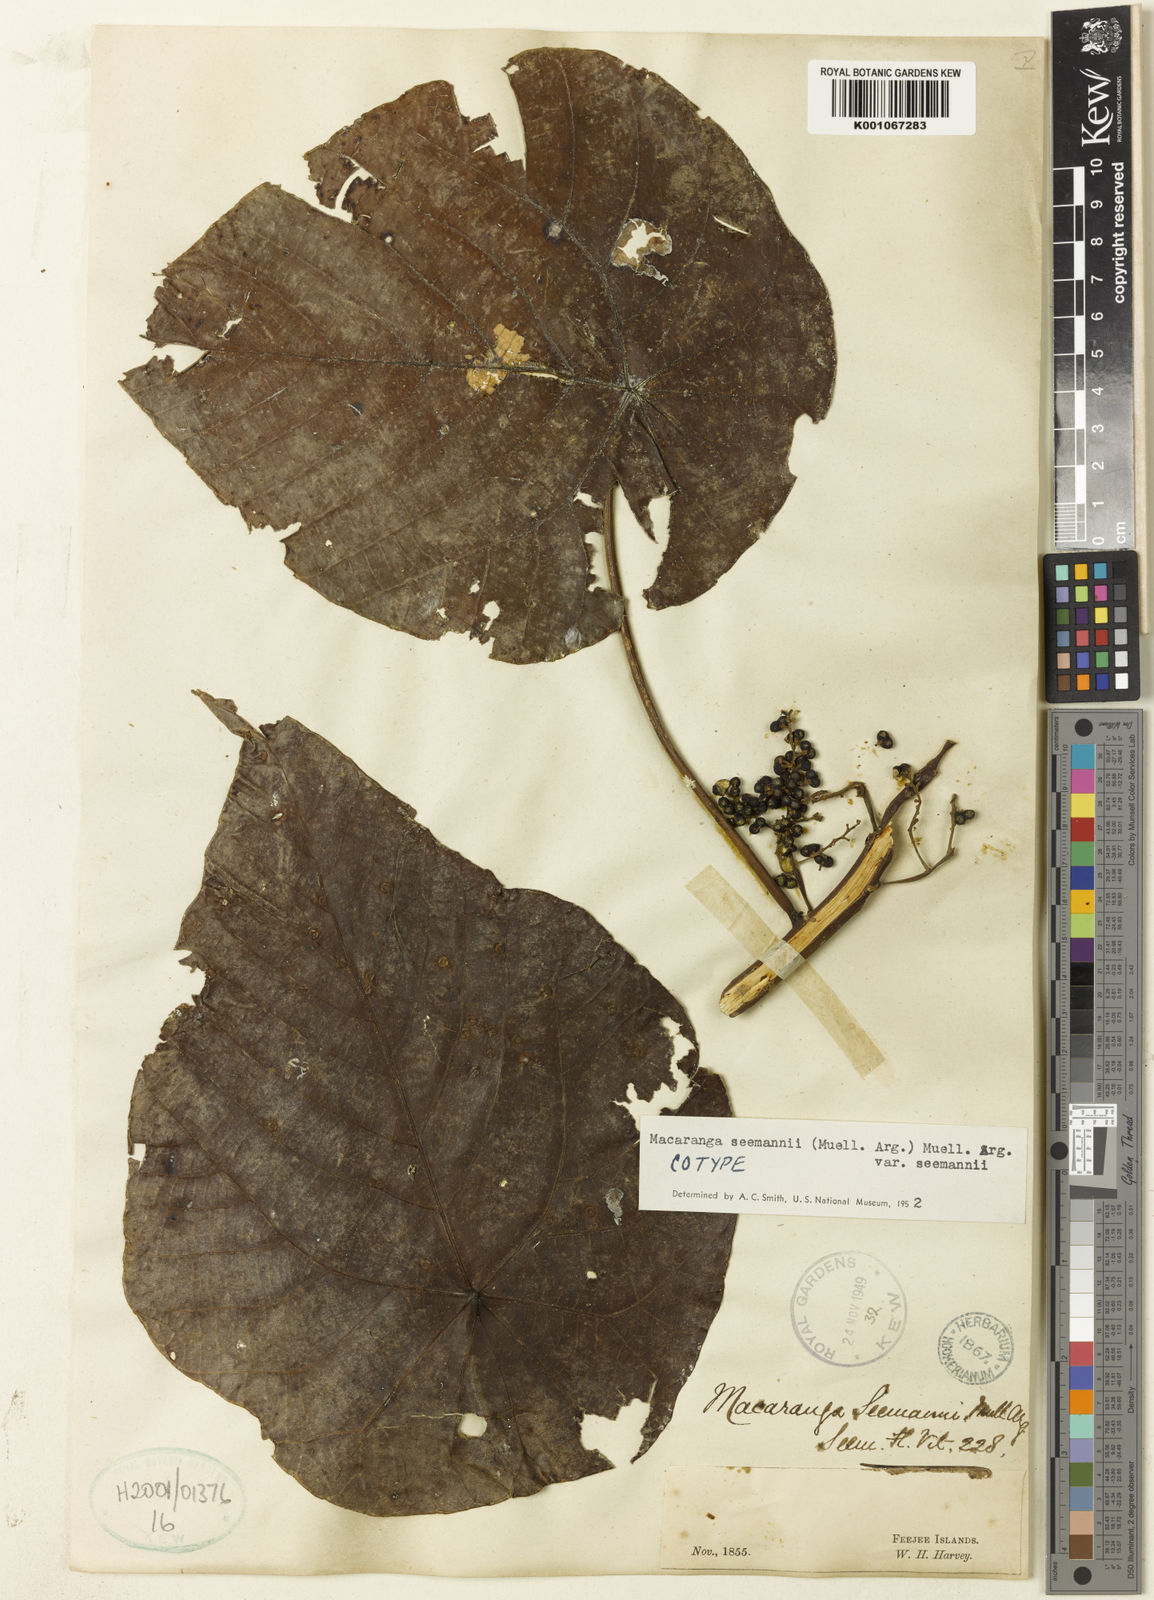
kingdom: Plantae
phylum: Tracheophyta
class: Magnoliopsida
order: Malpighiales
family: Euphorbiaceae
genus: Macaranga
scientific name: Macaranga
